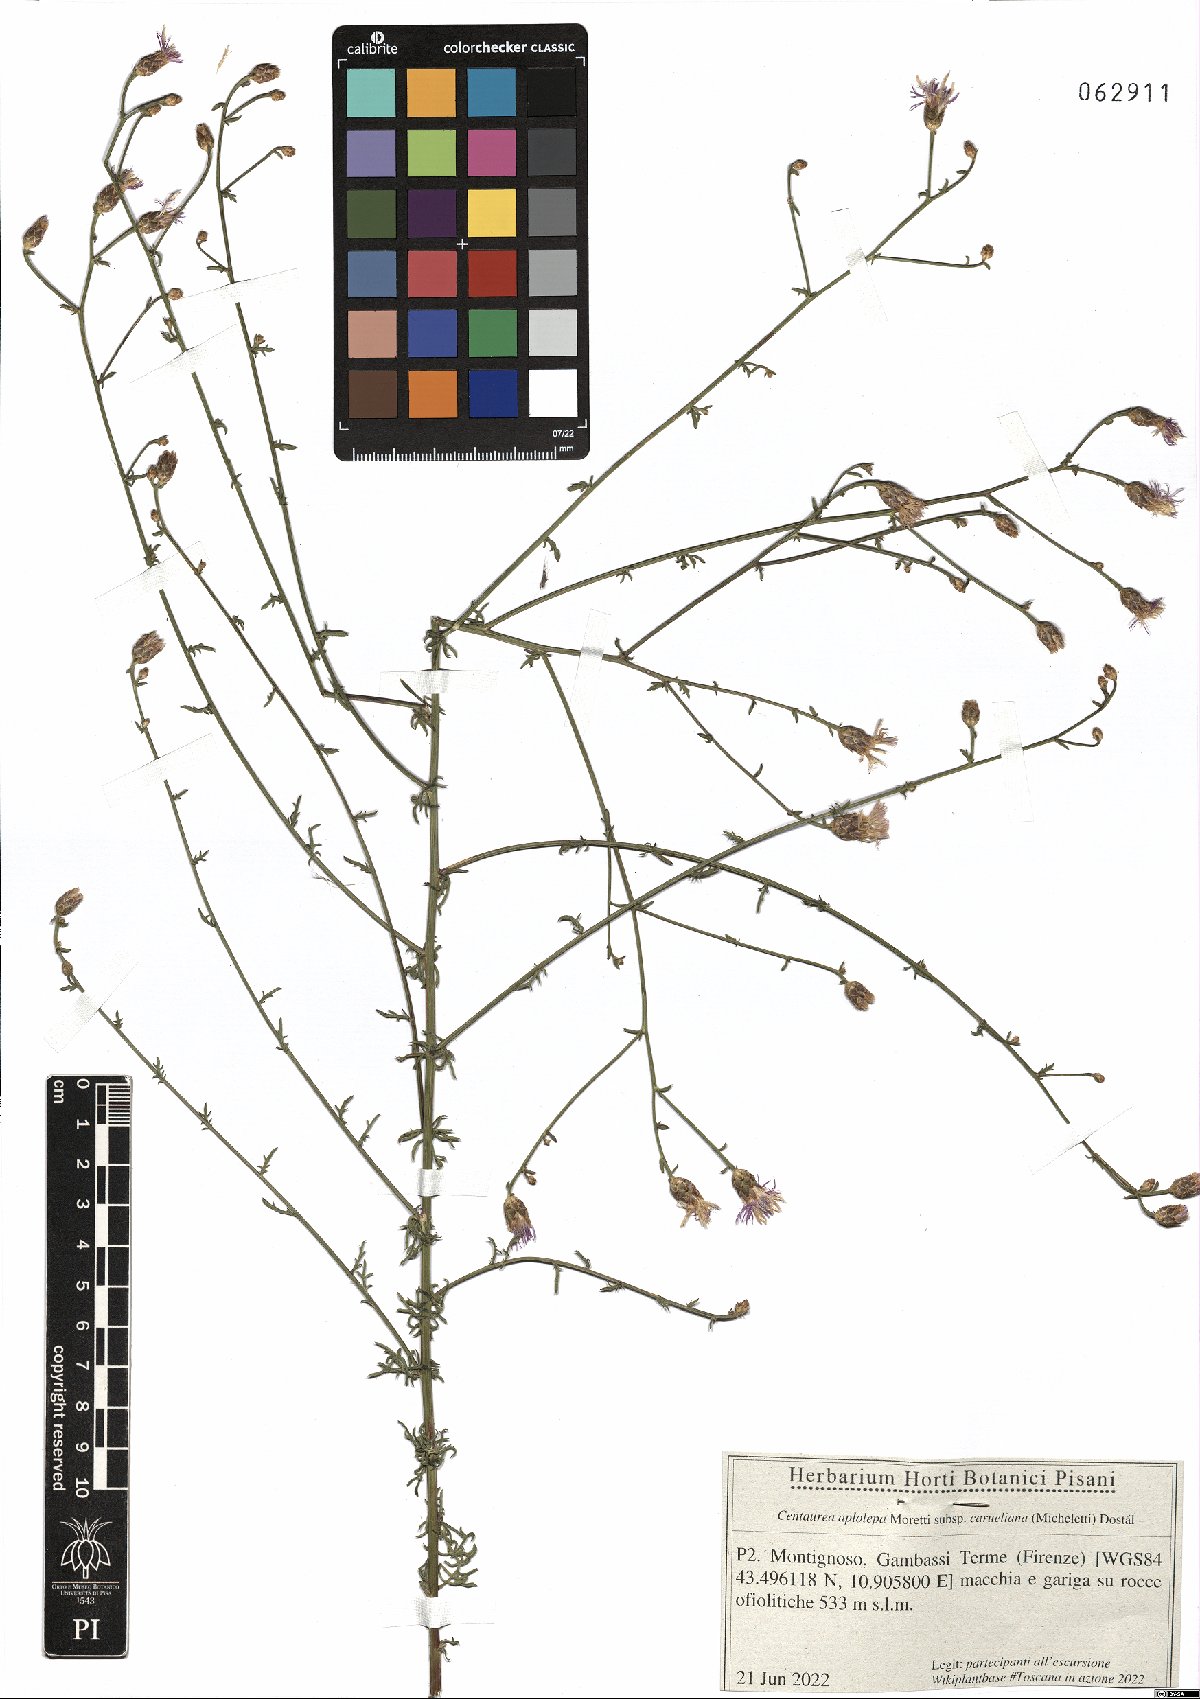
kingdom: Plantae
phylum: Tracheophyta
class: Magnoliopsida
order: Asterales
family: Asteraceae
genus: Centaurea
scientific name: Centaurea aplolepa
